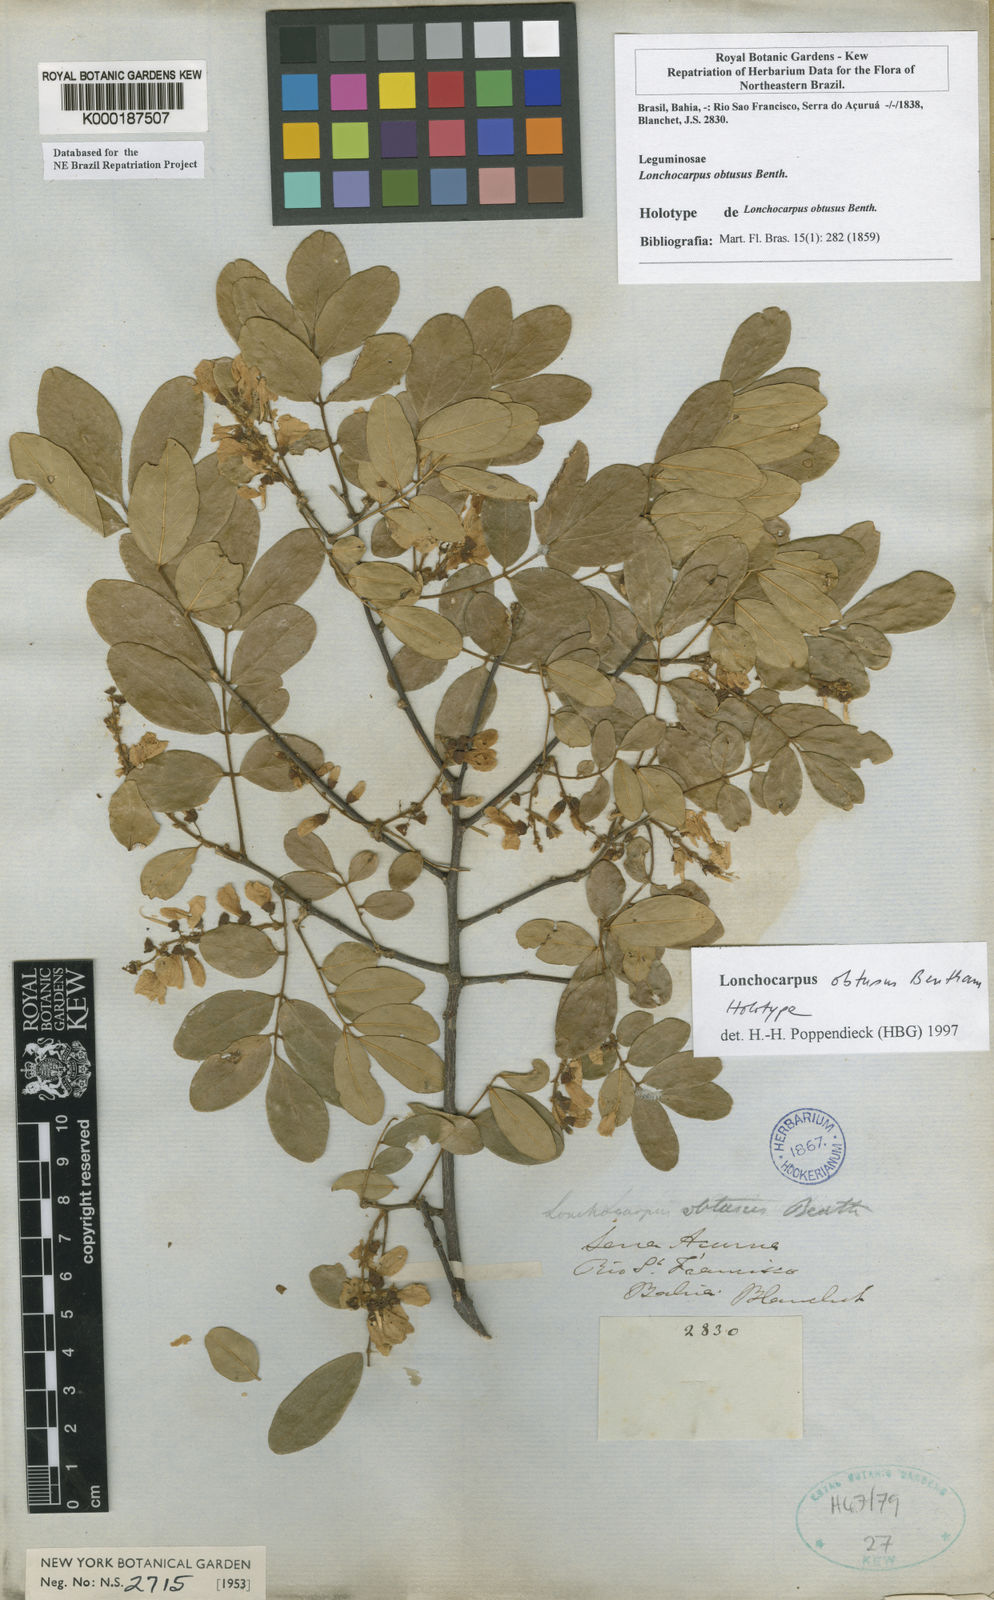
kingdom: Plantae
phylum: Tracheophyta
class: Magnoliopsida
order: Fabales
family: Fabaceae
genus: Muellera
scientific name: Muellera obtusa
